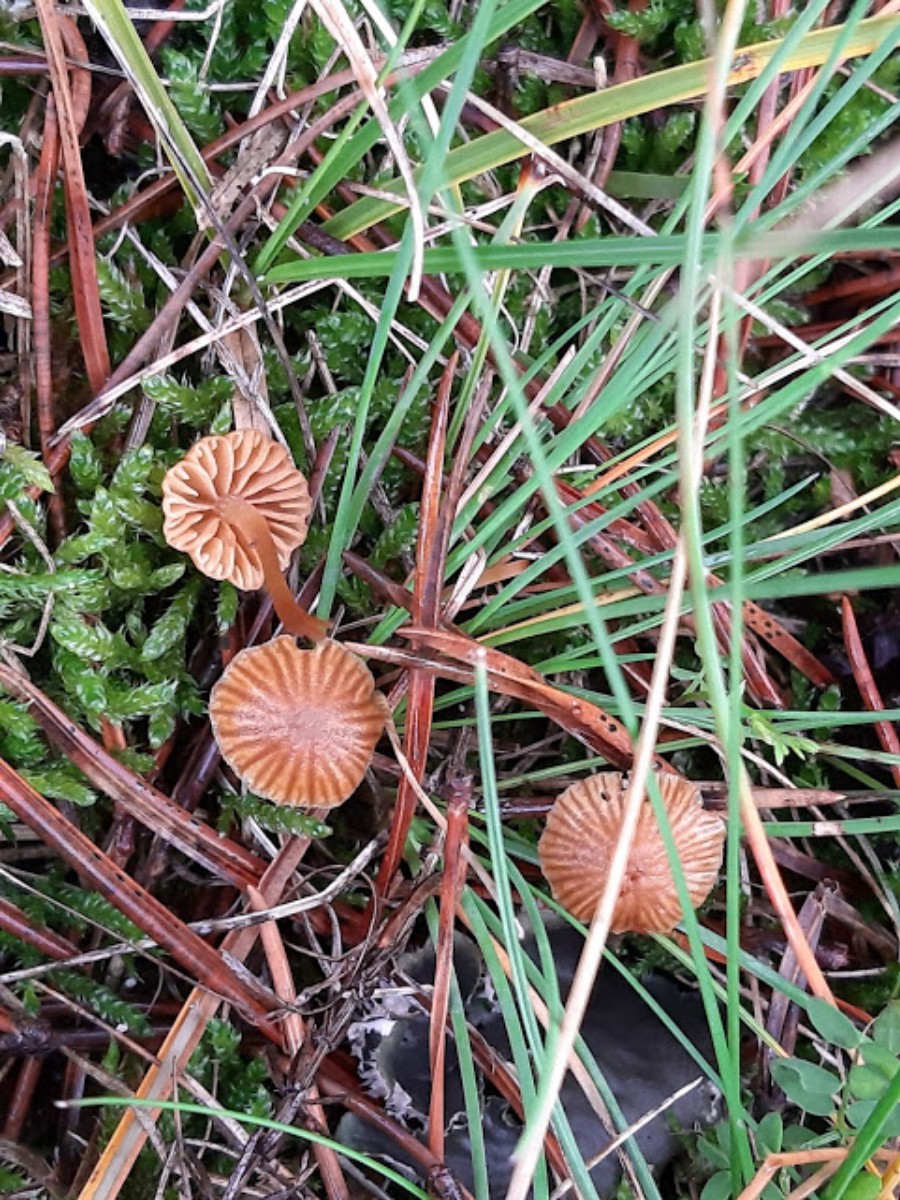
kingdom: Fungi
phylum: Basidiomycota
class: Agaricomycetes
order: Agaricales
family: Hymenogastraceae
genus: Galerina
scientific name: Galerina
